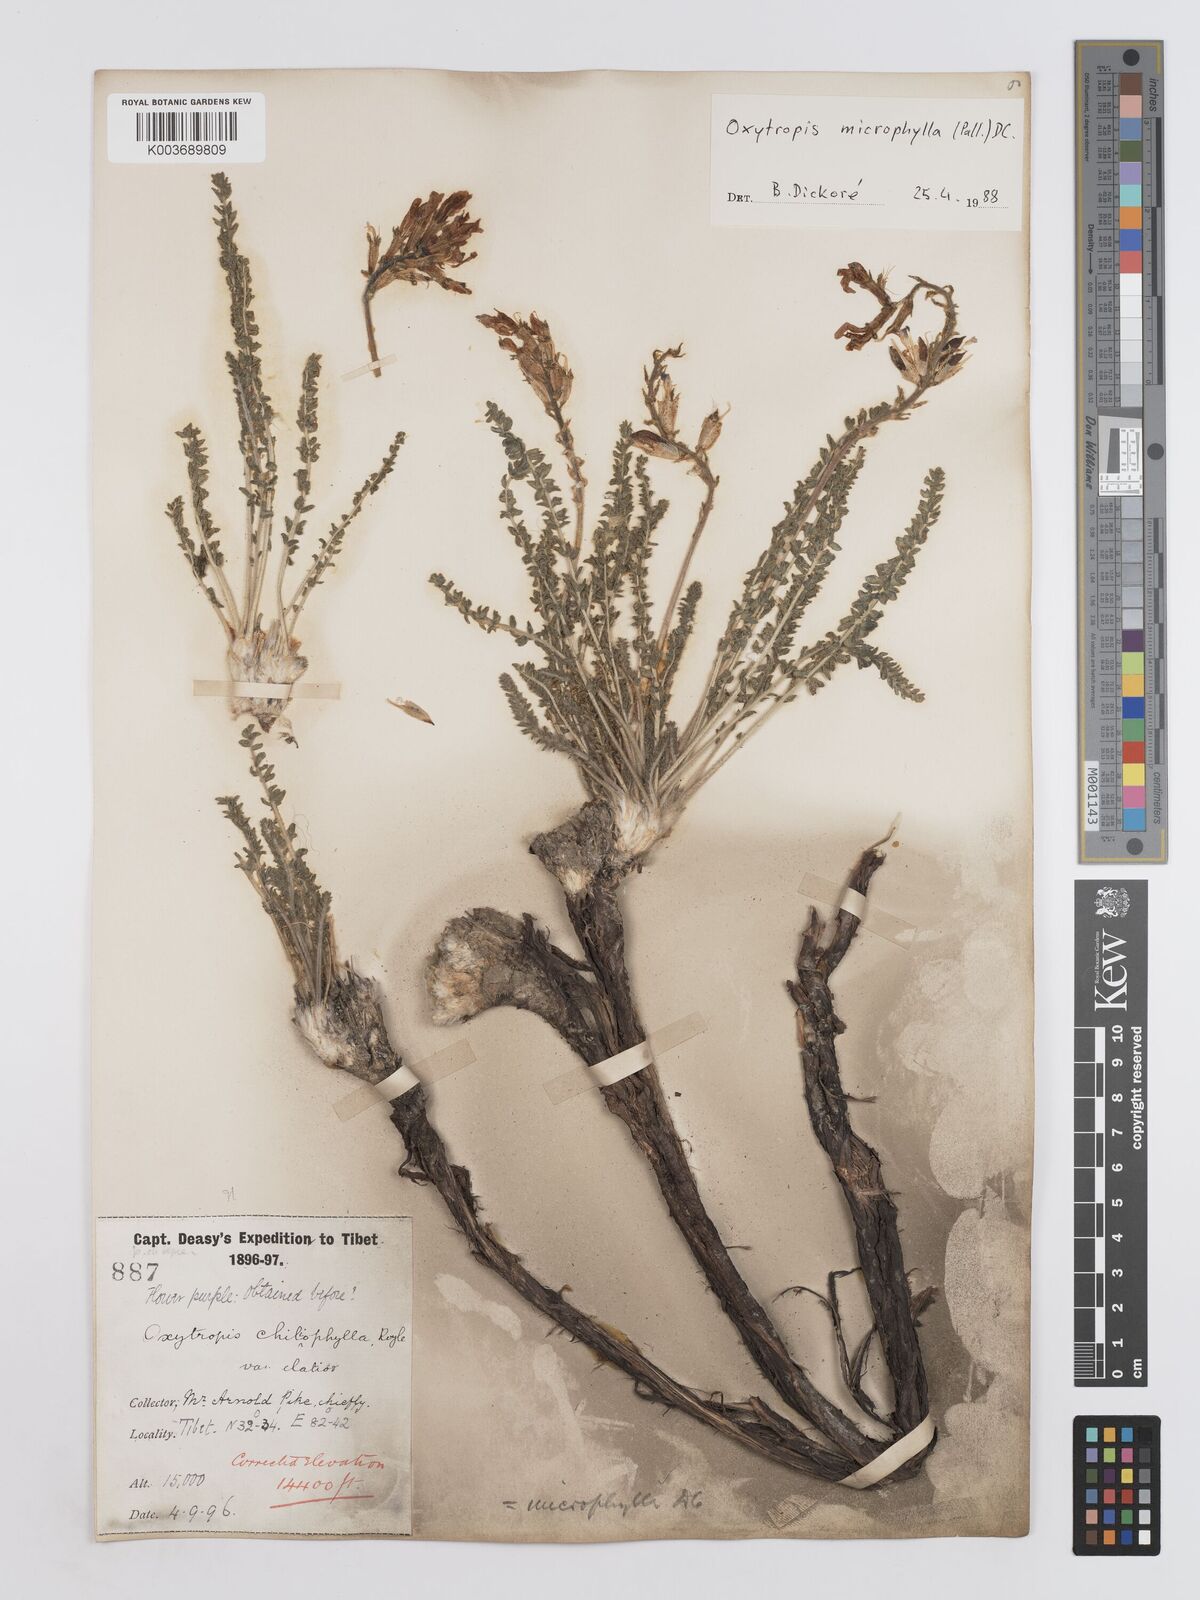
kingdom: Plantae
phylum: Tracheophyta
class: Magnoliopsida
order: Fabales
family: Fabaceae
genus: Oxytropis
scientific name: Oxytropis microphylla
